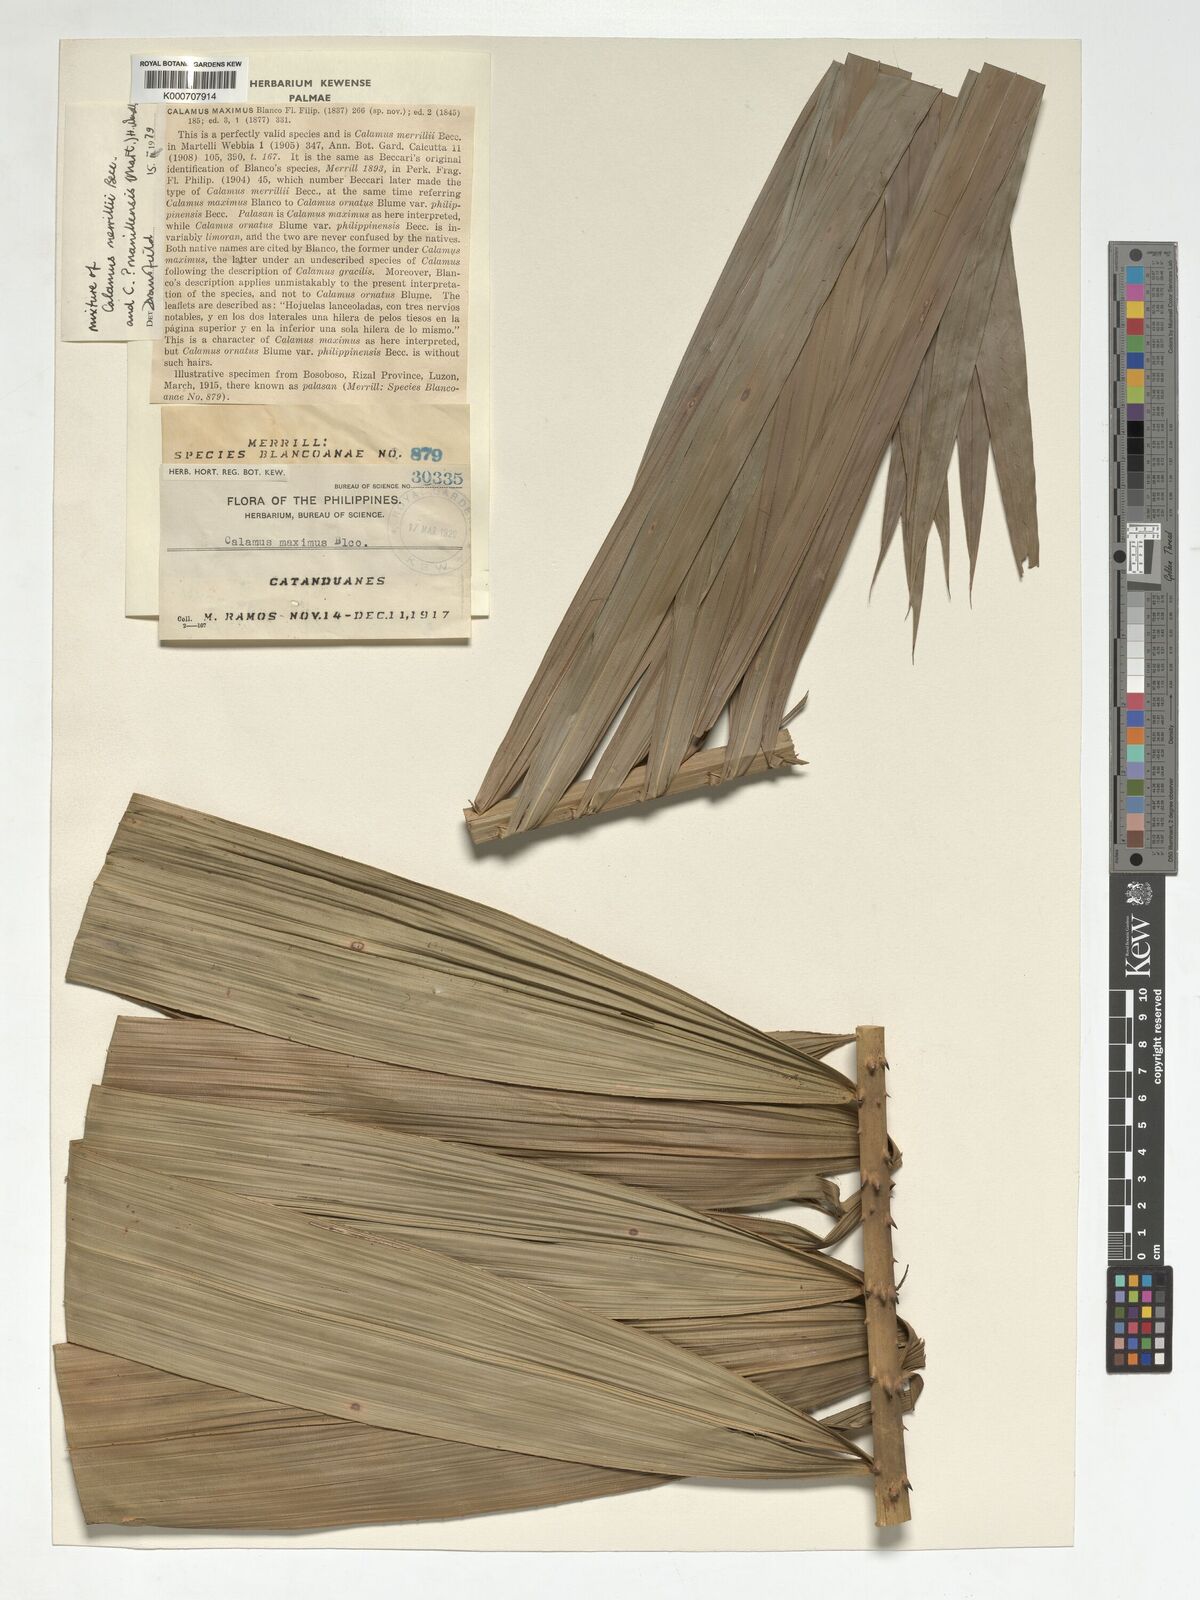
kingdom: Plantae
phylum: Tracheophyta
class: Liliopsida
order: Arecales
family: Arecaceae
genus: Calamus
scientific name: Calamus manillensis
